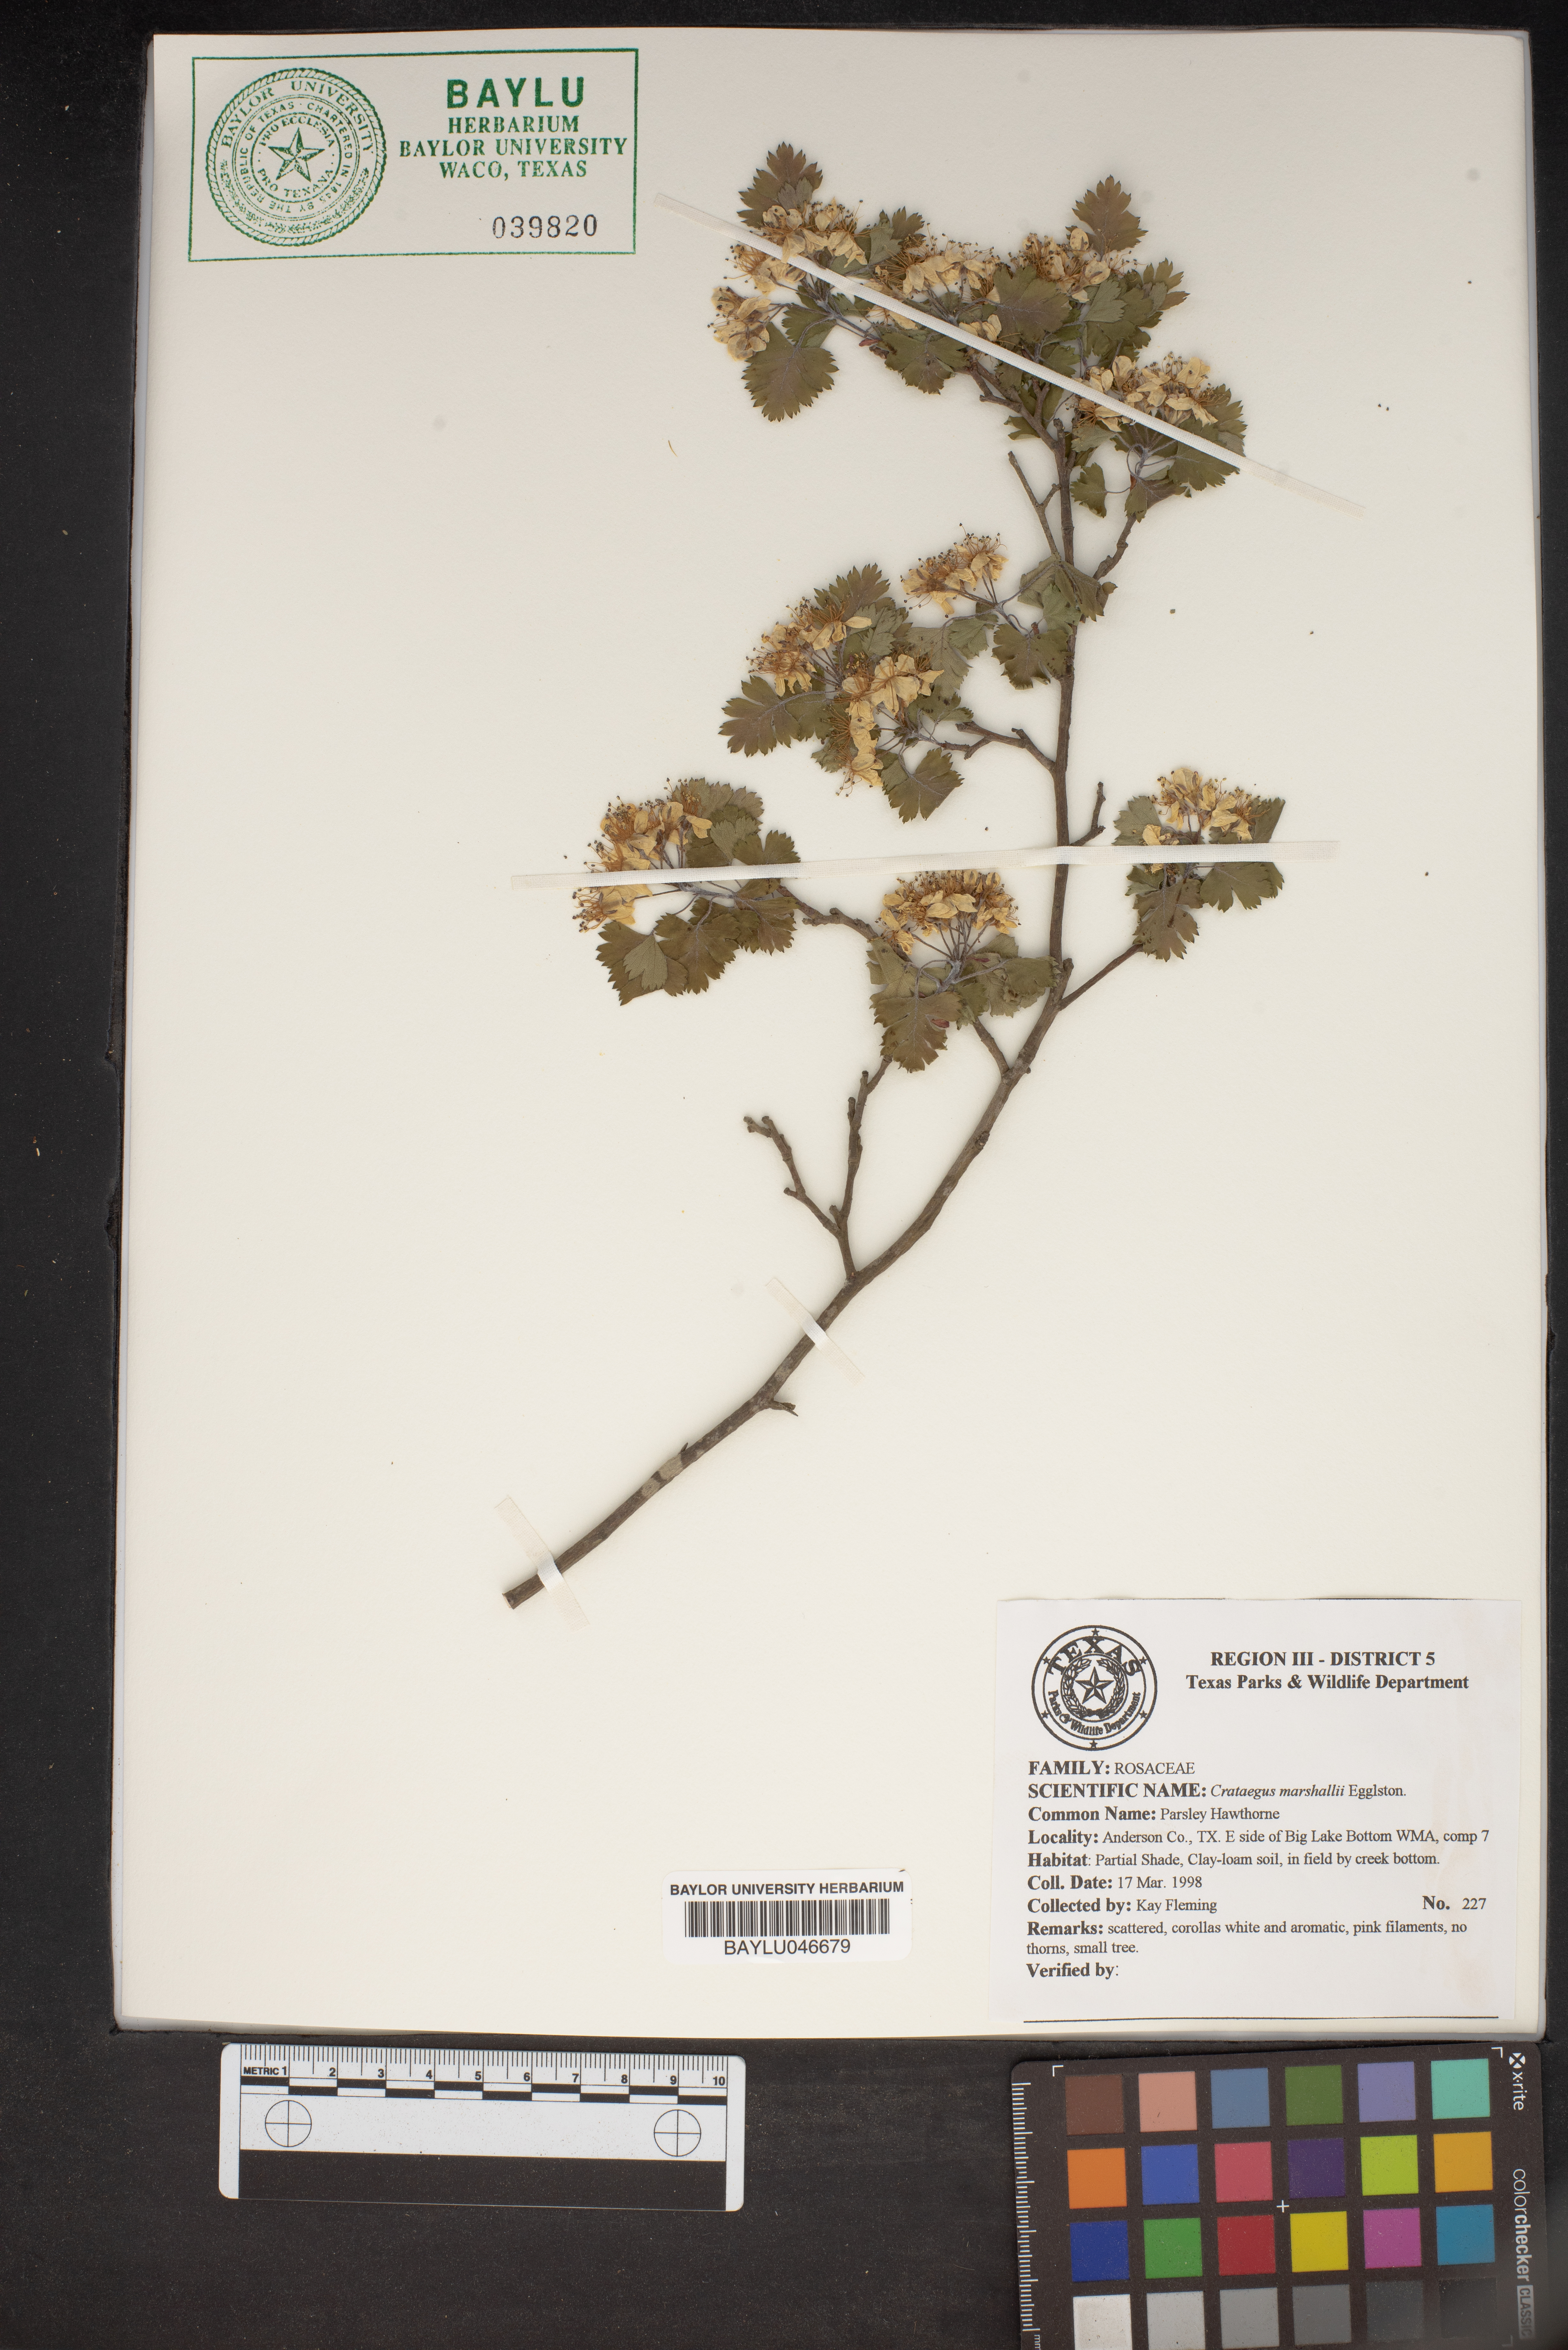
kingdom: Plantae
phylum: Tracheophyta
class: Magnoliopsida
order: Rosales
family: Rosaceae
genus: Crataegus
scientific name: Crataegus marshallii
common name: Parsley-hawthorn
